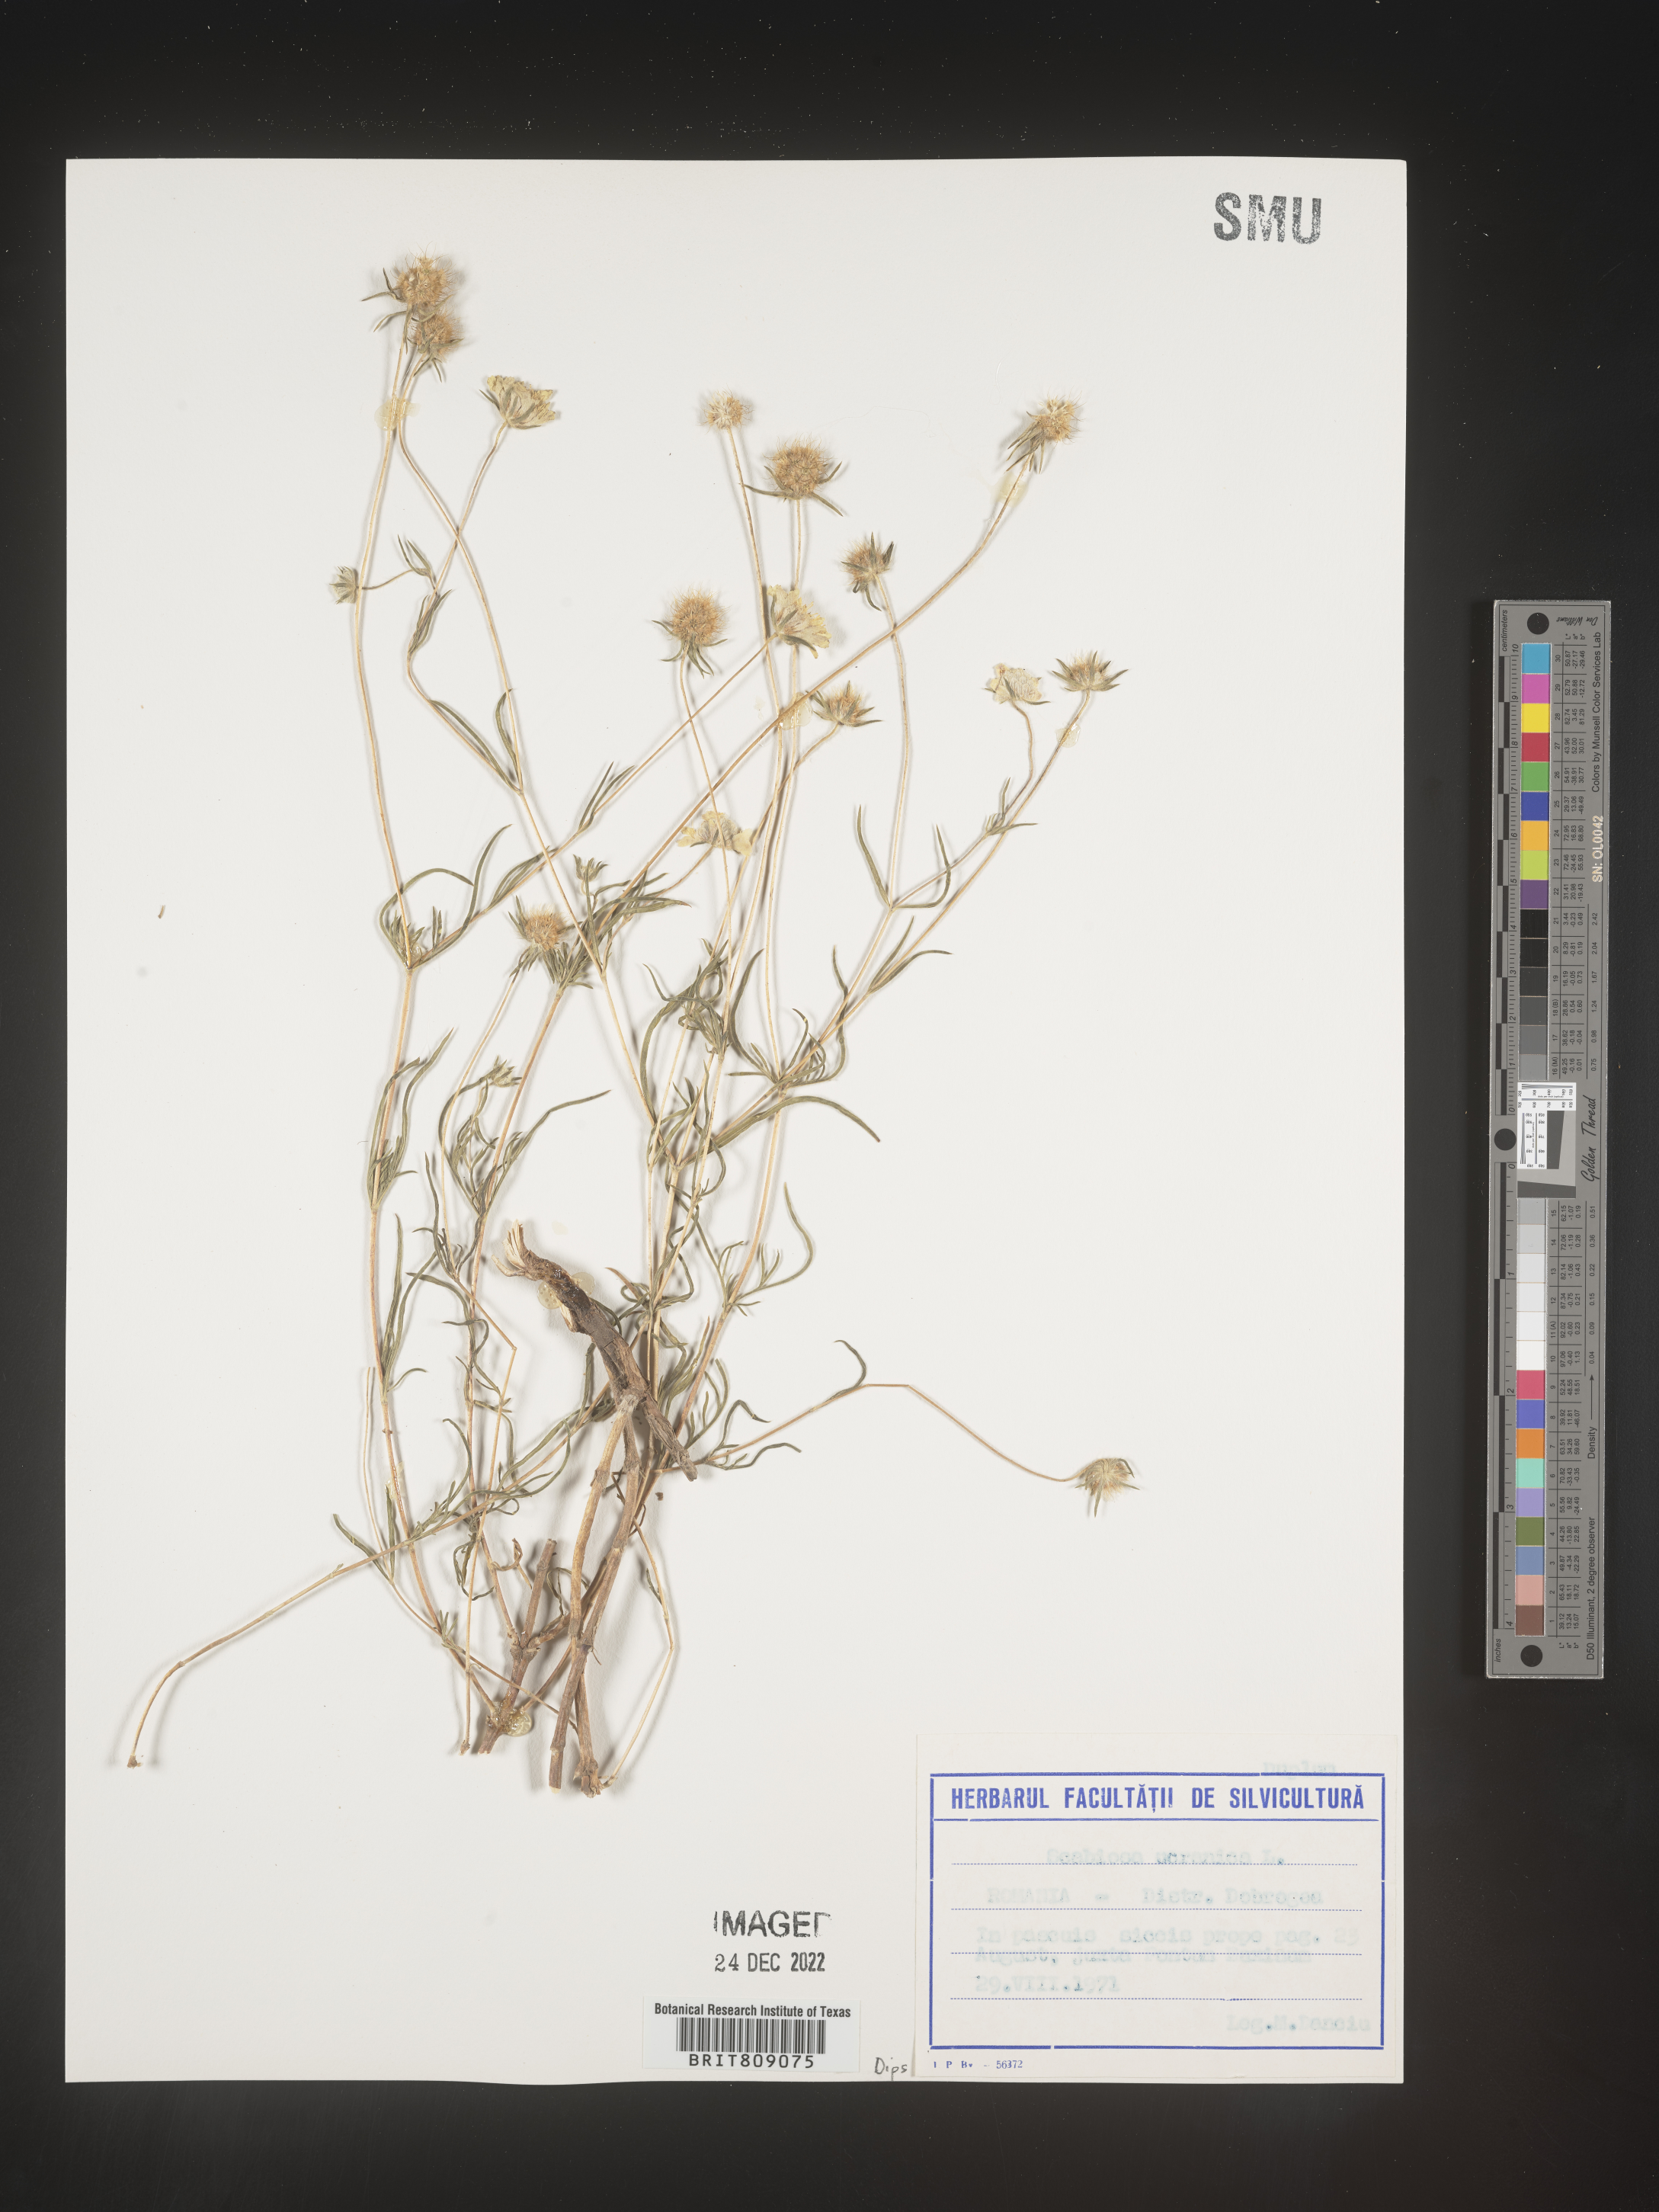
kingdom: Plantae
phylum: Tracheophyta
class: Magnoliopsida
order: Dipsacales
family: Caprifoliaceae
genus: Scabiosa
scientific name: Scabiosa
